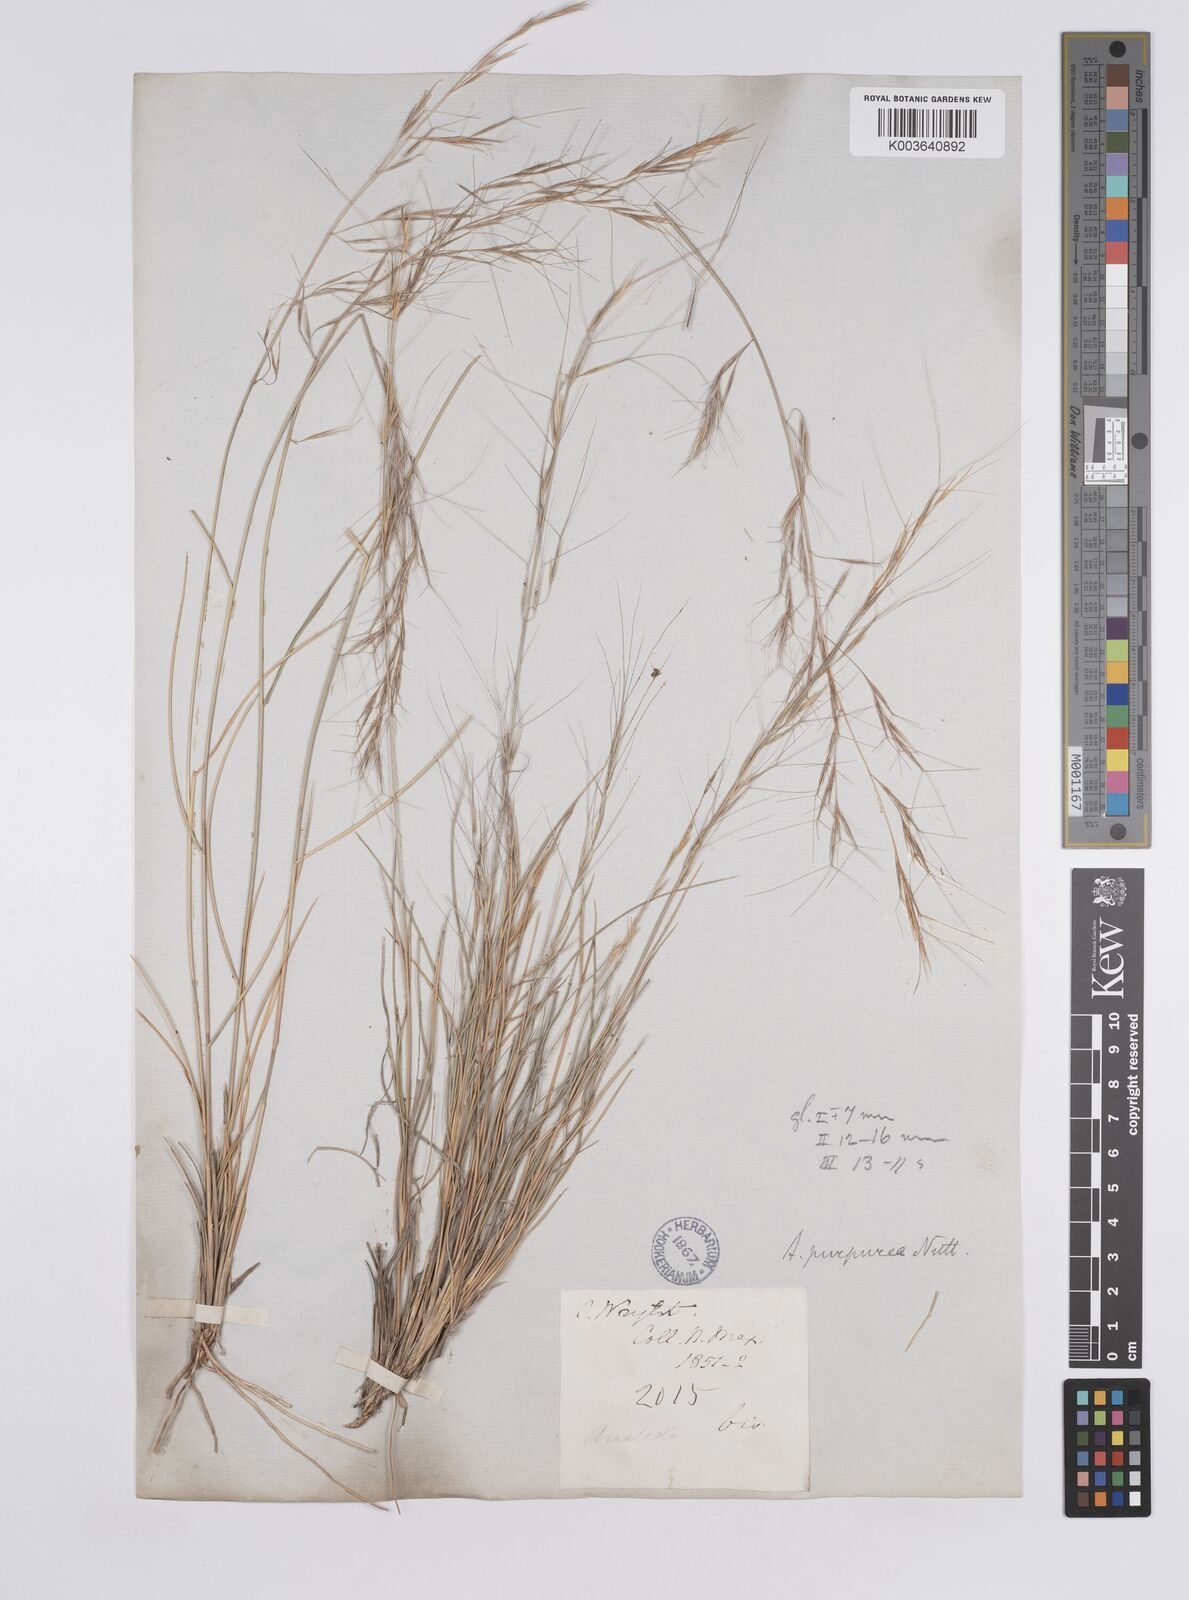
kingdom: Plantae
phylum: Tracheophyta
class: Liliopsida
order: Poales
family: Poaceae
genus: Aristida
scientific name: Aristida purpurea
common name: Purple threeawn
